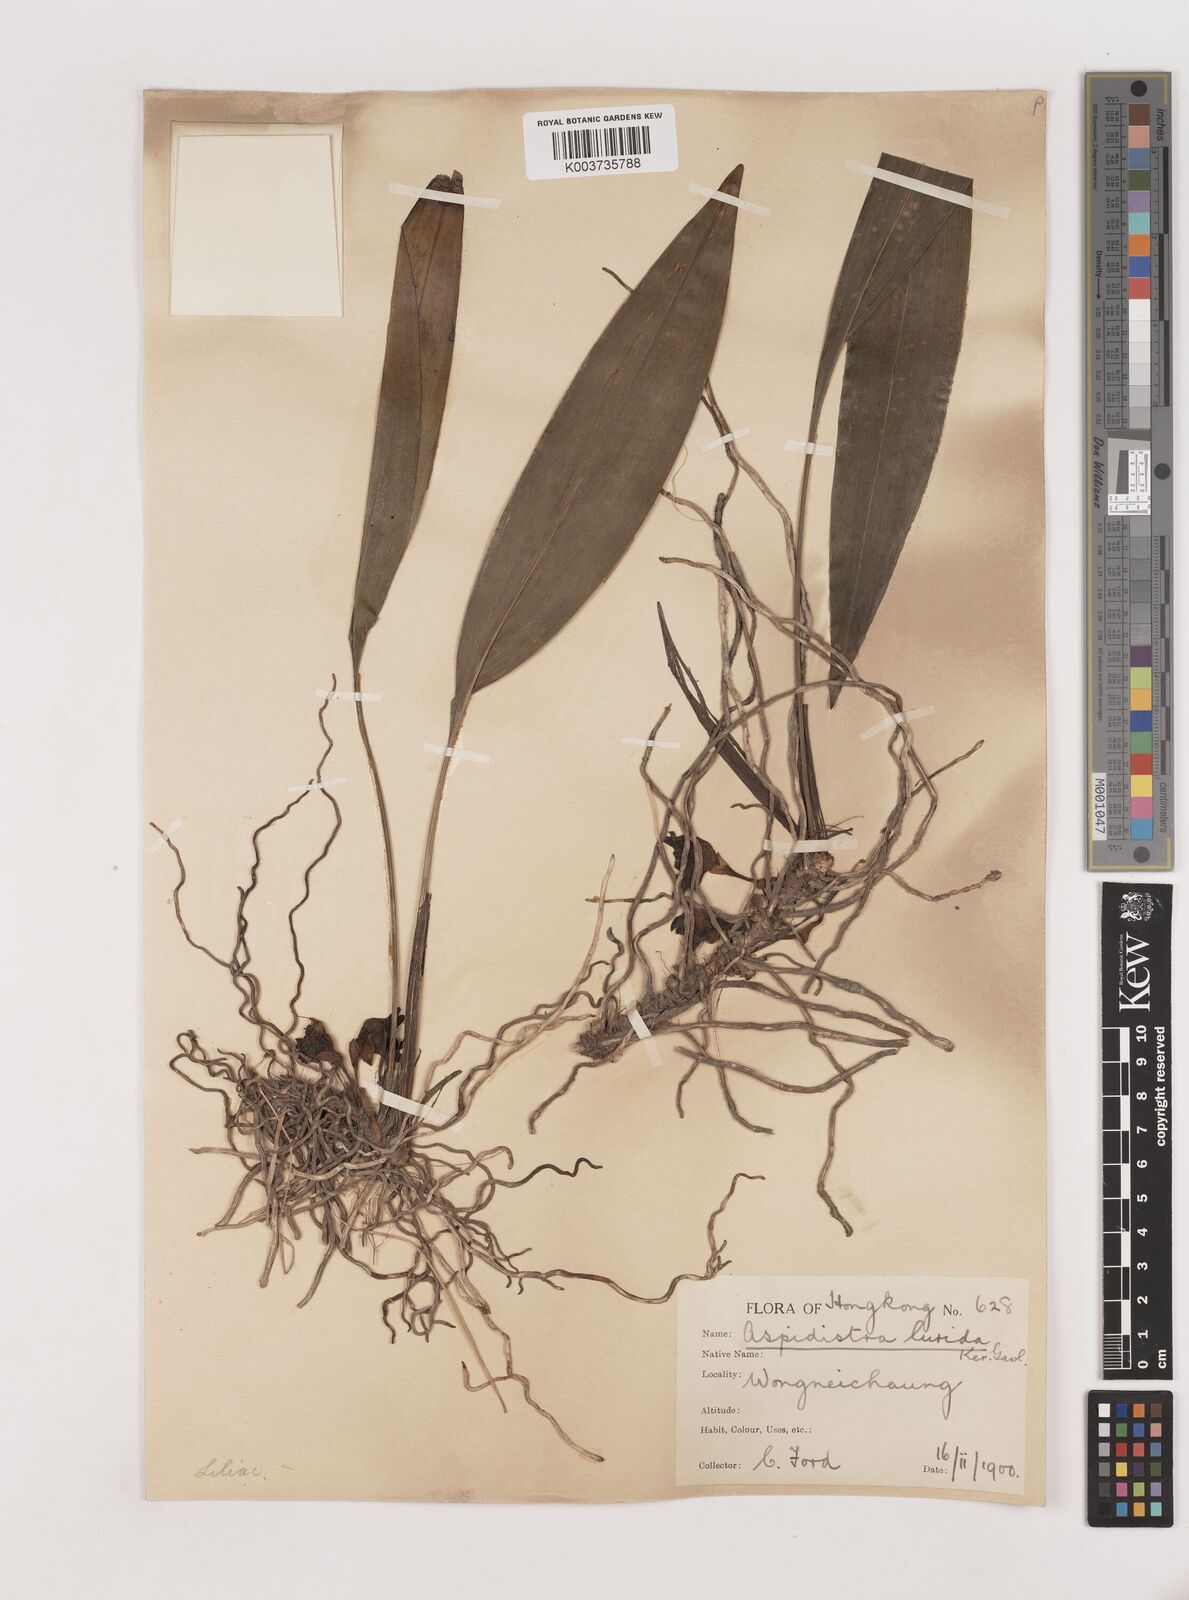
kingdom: Plantae
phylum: Tracheophyta
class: Liliopsida
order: Asparagales
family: Asparagaceae
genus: Aspidistra
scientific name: Aspidistra lurida
